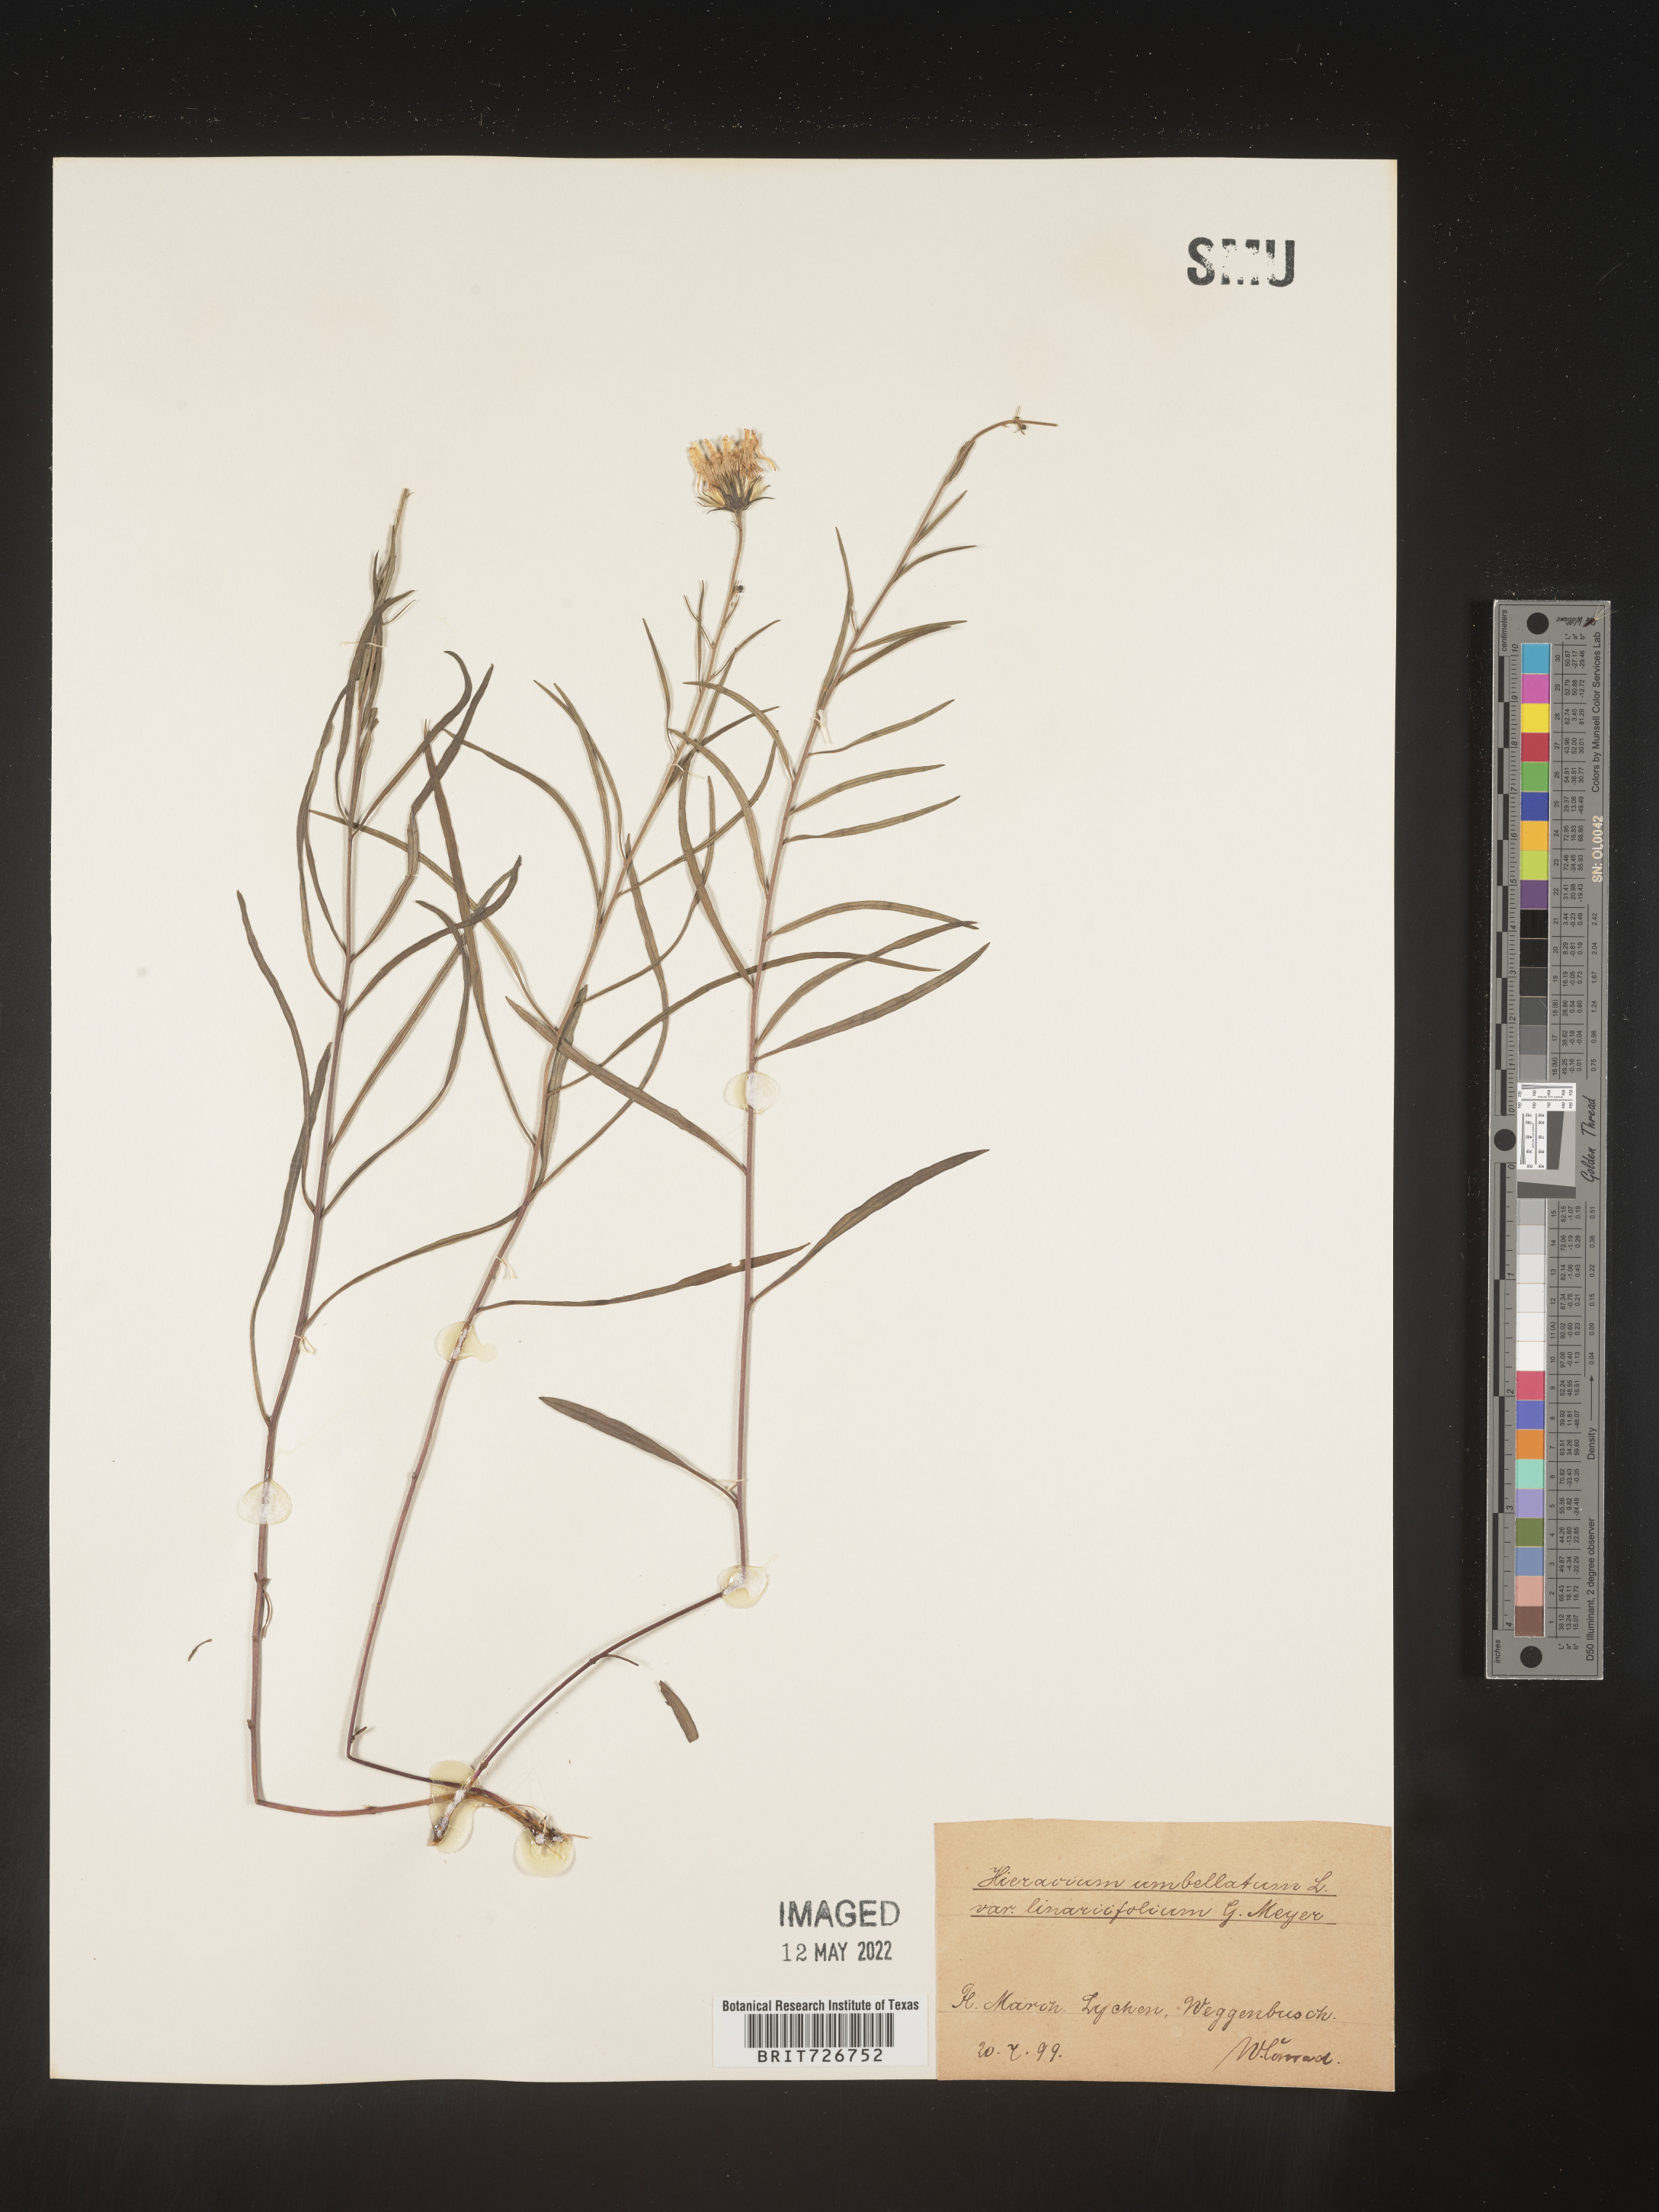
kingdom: Plantae
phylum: Tracheophyta
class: Magnoliopsida
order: Asterales
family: Asteraceae
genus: Hieracium
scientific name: Hieracium
